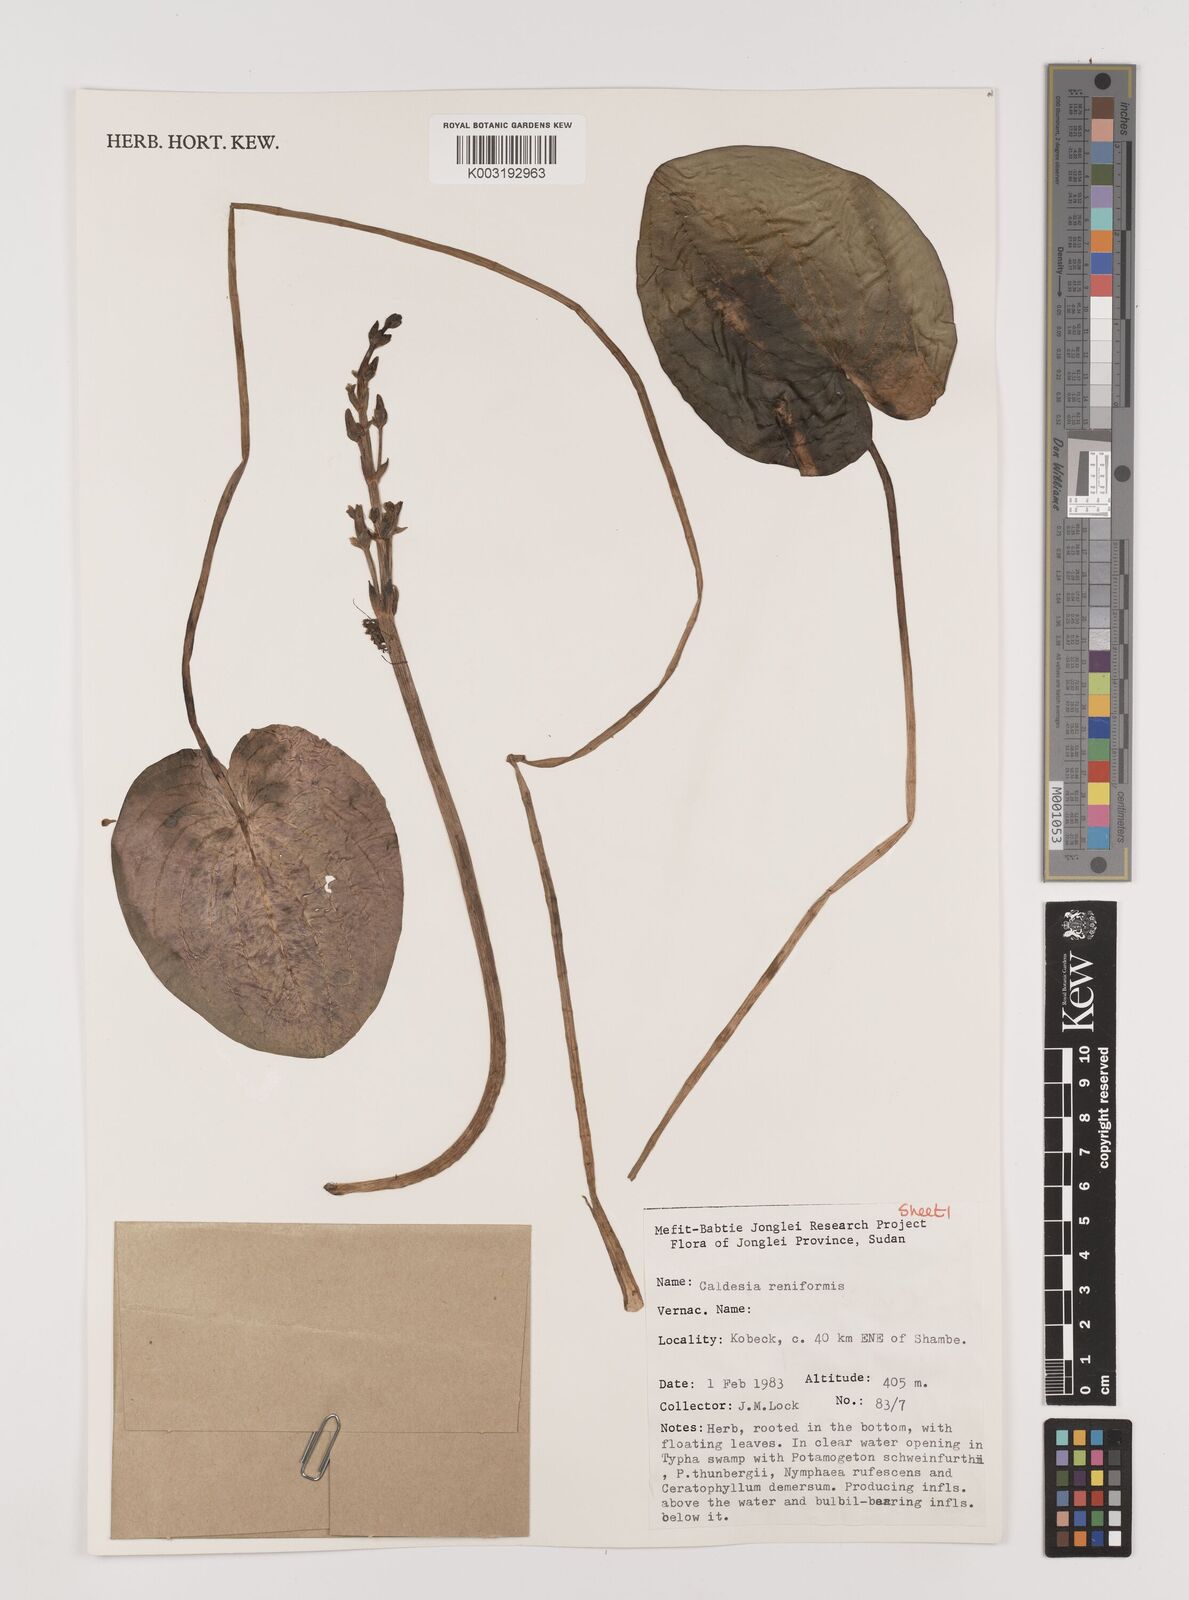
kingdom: Plantae
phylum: Tracheophyta
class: Liliopsida
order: Alismatales
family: Alismataceae
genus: Caldesia
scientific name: Caldesia parnassifolia
